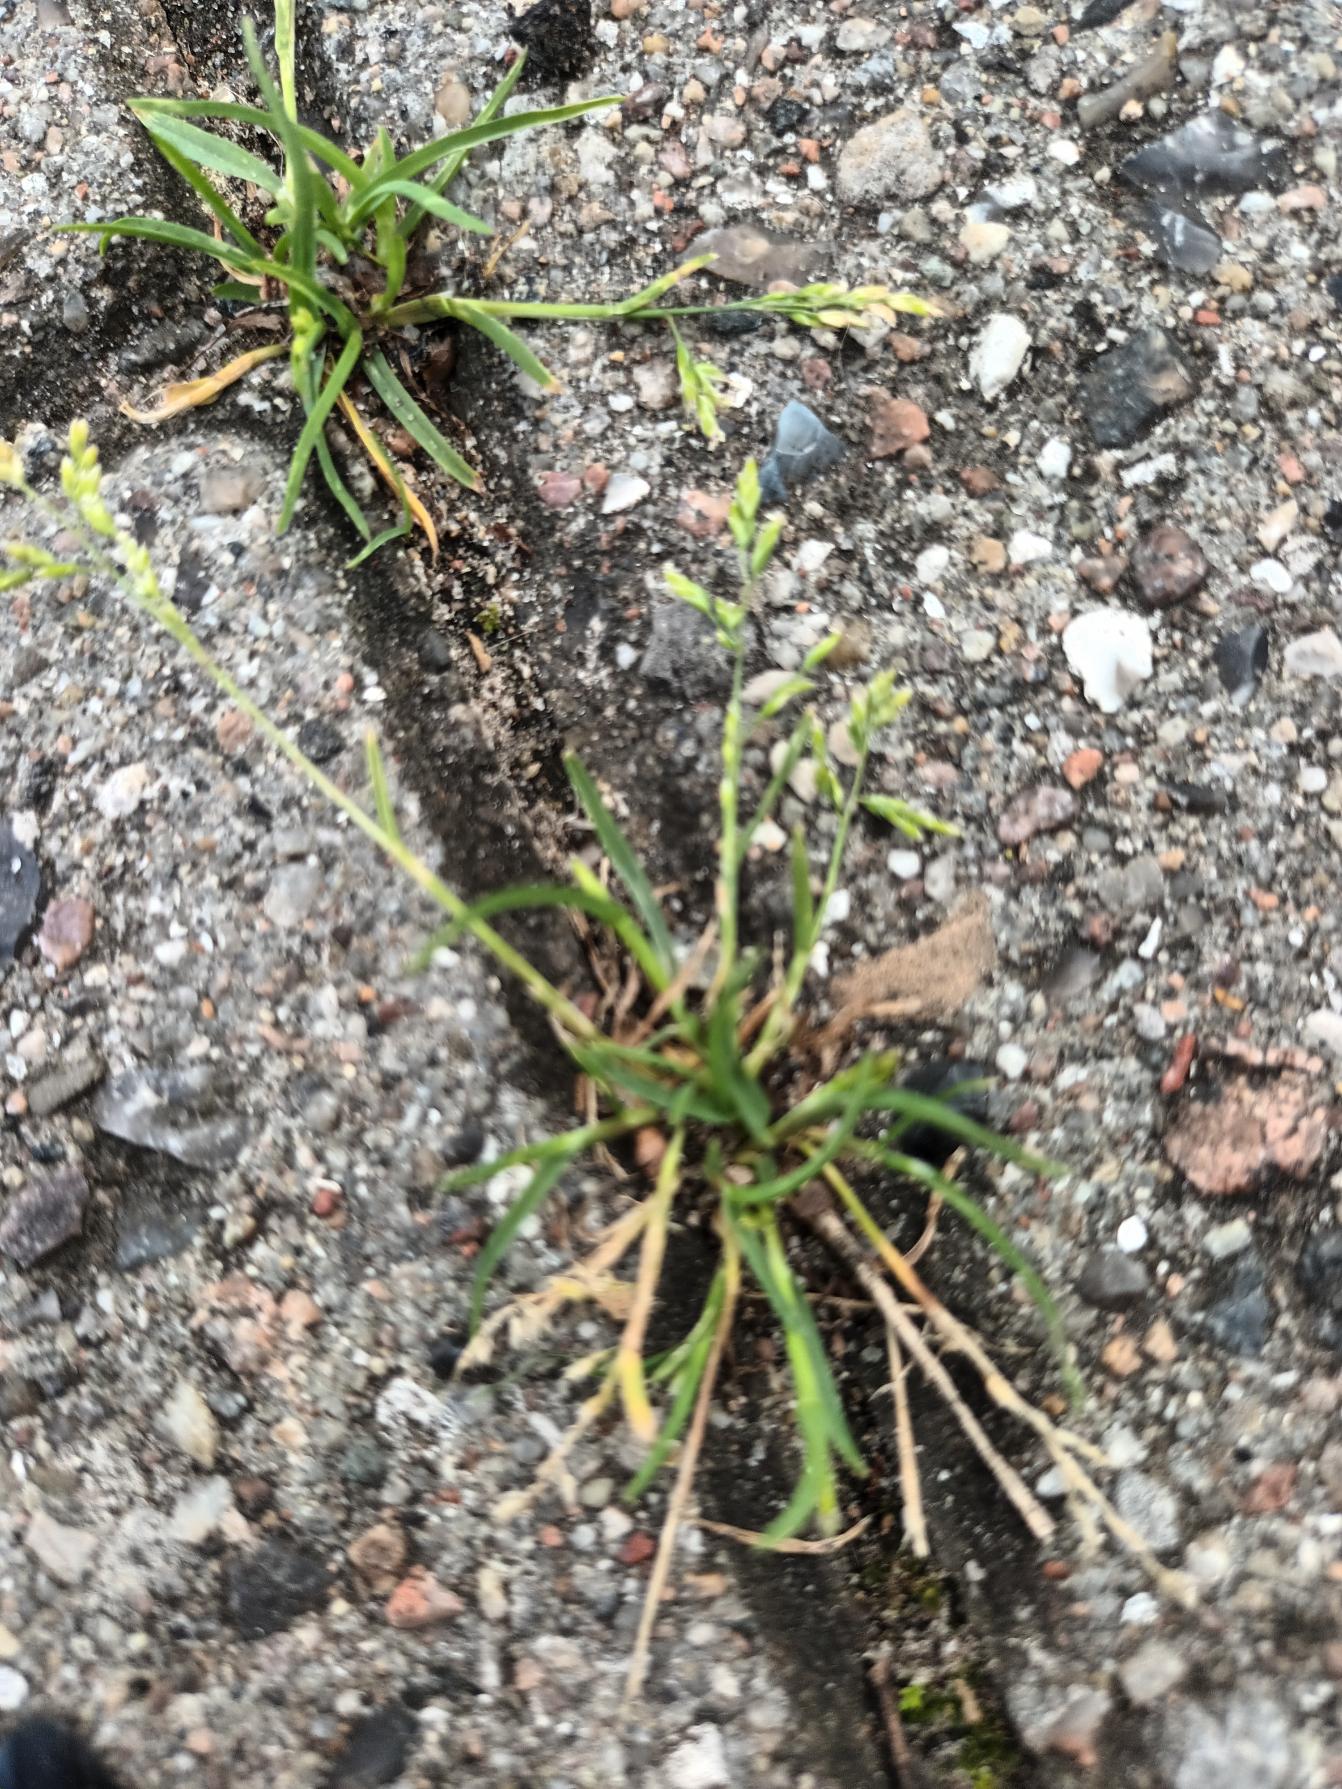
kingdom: Plantae
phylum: Tracheophyta
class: Liliopsida
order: Poales
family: Poaceae
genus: Poa
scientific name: Poa annua
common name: Enårig rapgræs
